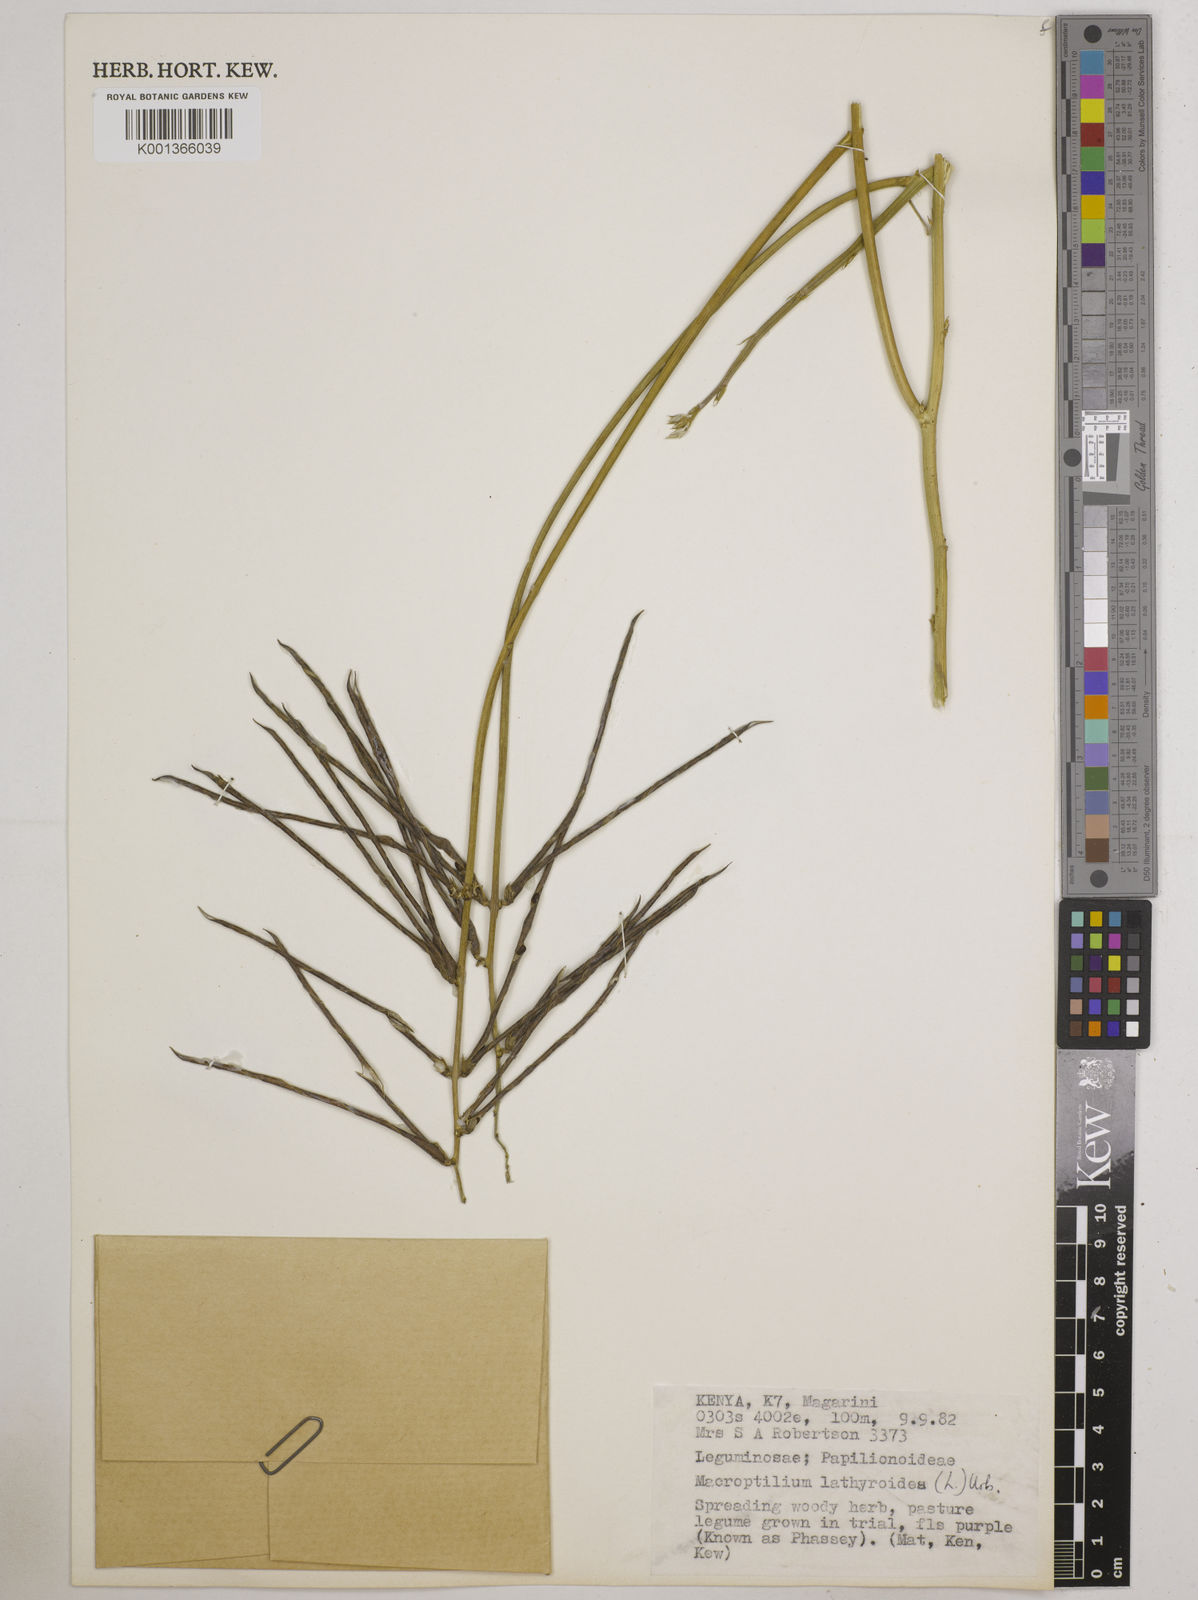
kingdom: Plantae
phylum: Tracheophyta
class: Magnoliopsida
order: Fabales
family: Fabaceae
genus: Macroptilium
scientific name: Macroptilium lathyroides
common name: Wild bushbean
